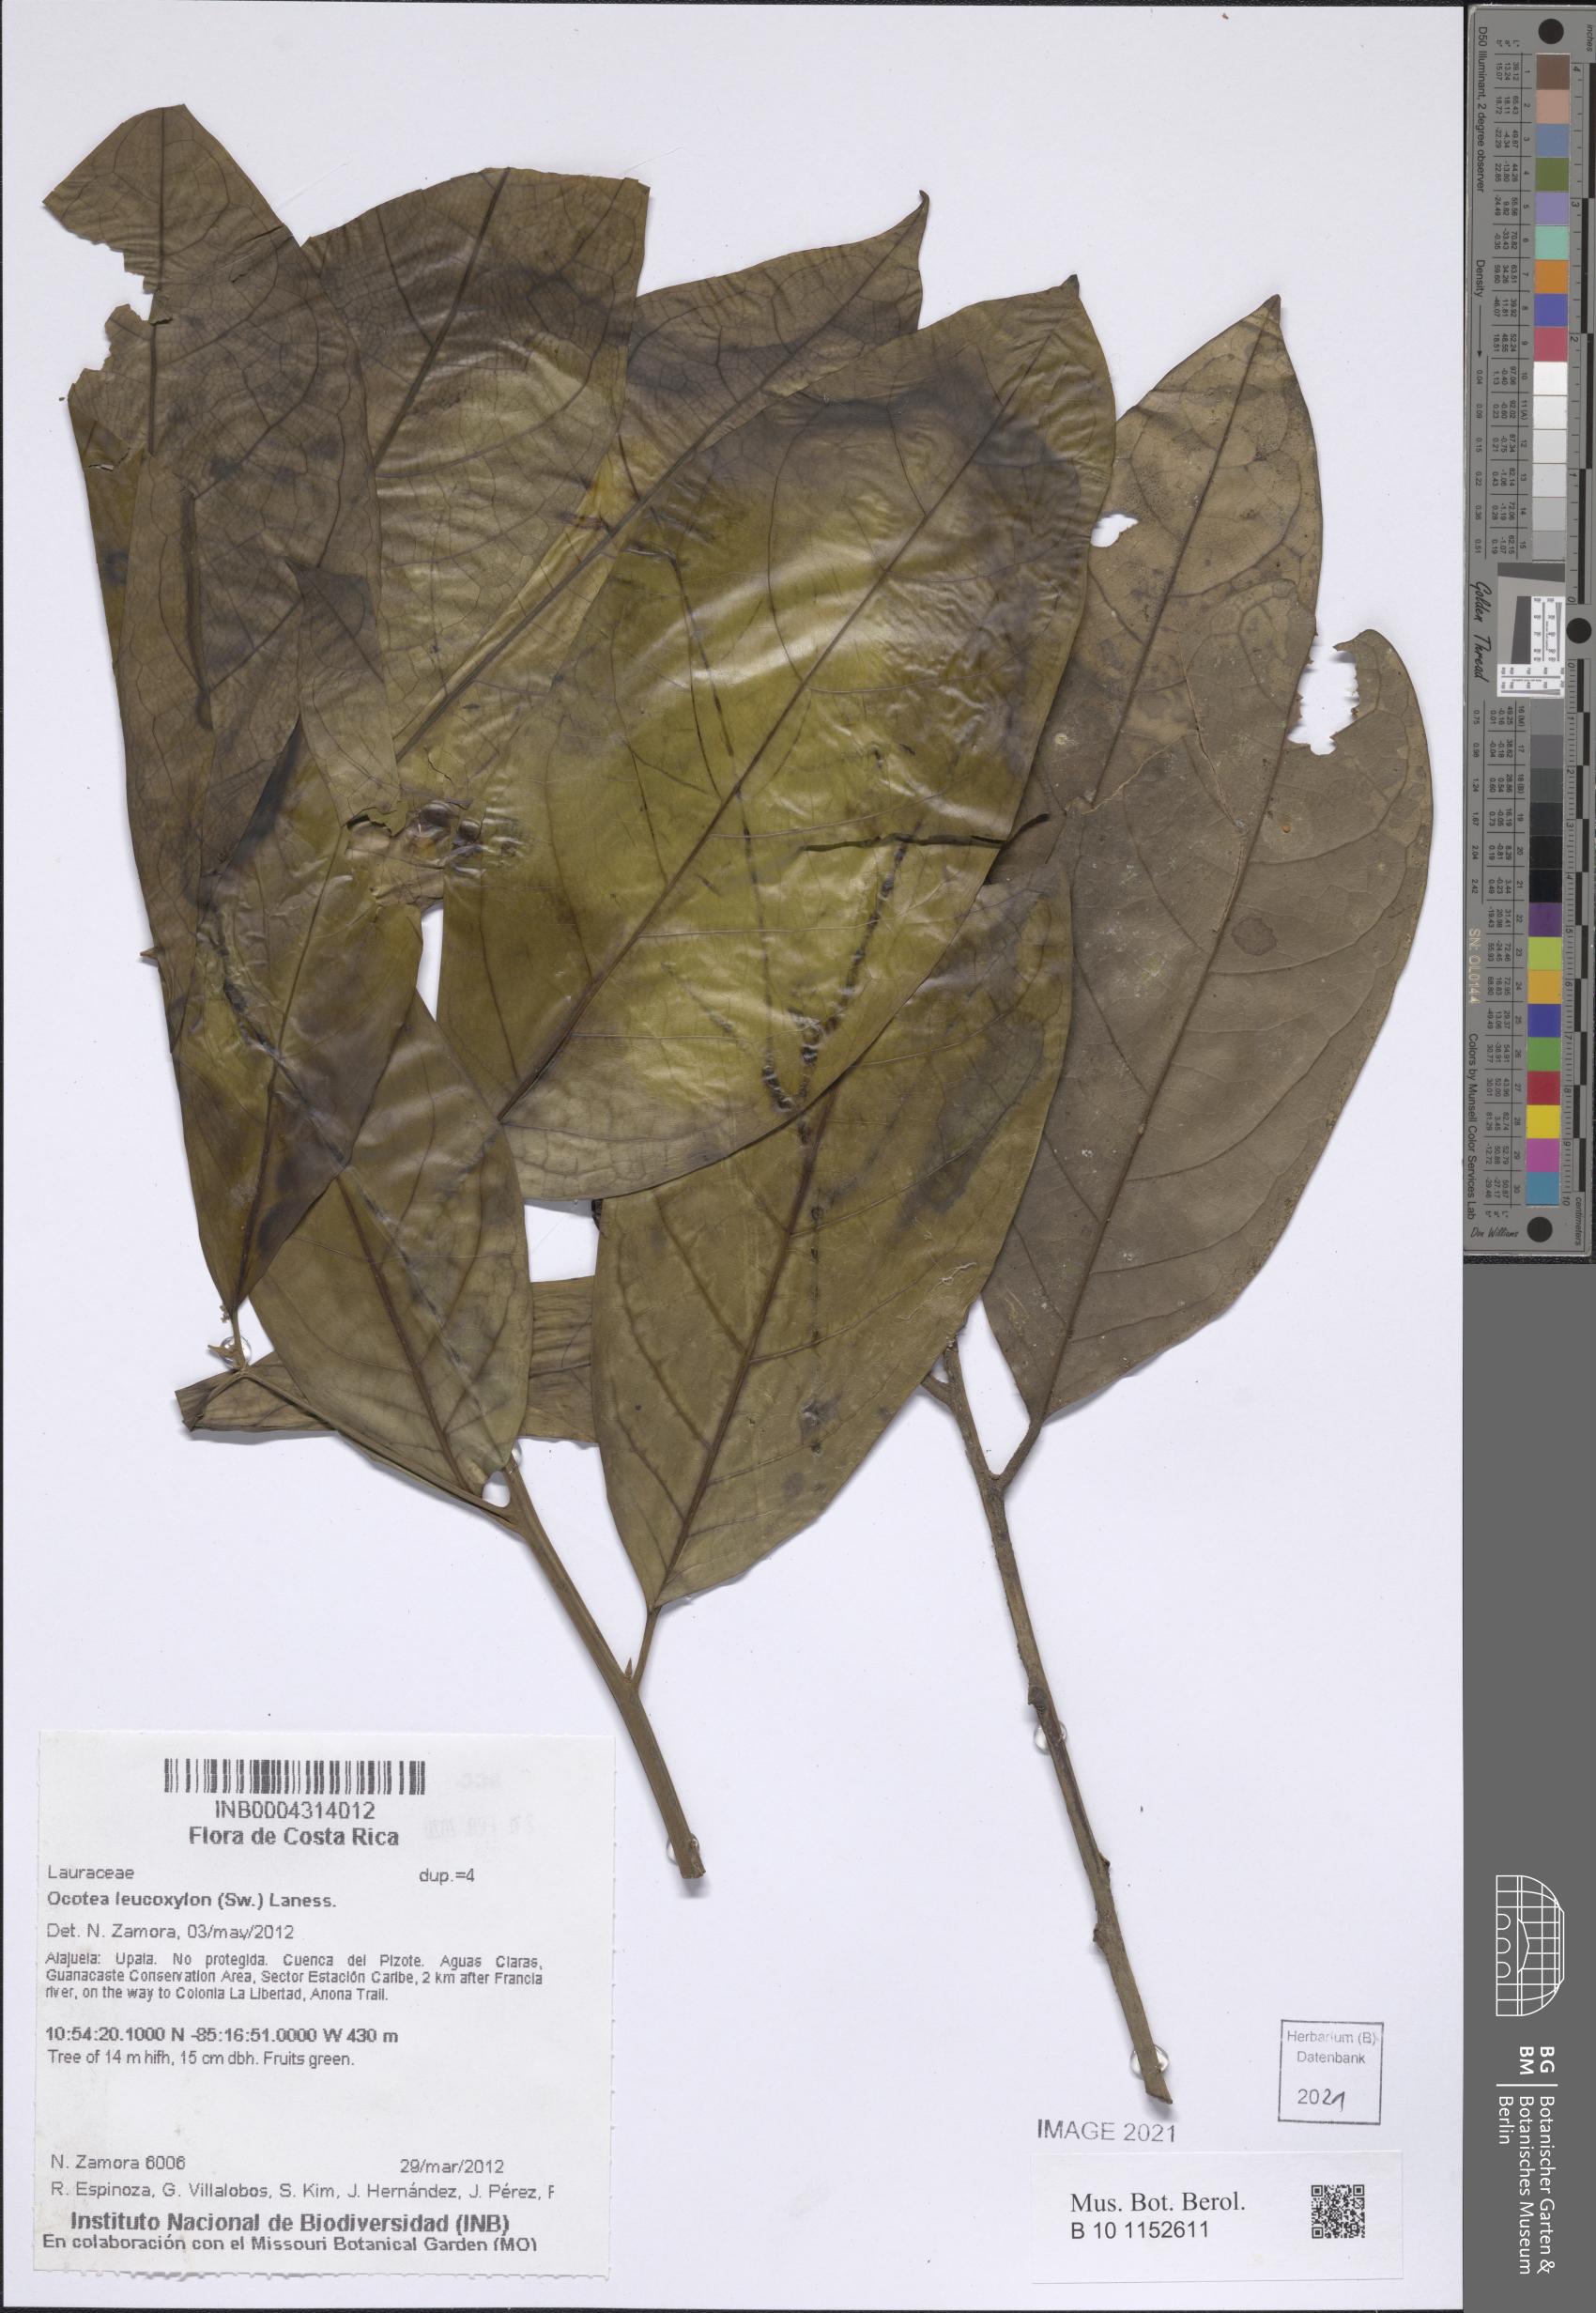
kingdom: Plantae
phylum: Tracheophyta
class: Magnoliopsida
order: Laurales
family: Lauraceae
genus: Ocotea
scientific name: Ocotea leucoxylon
